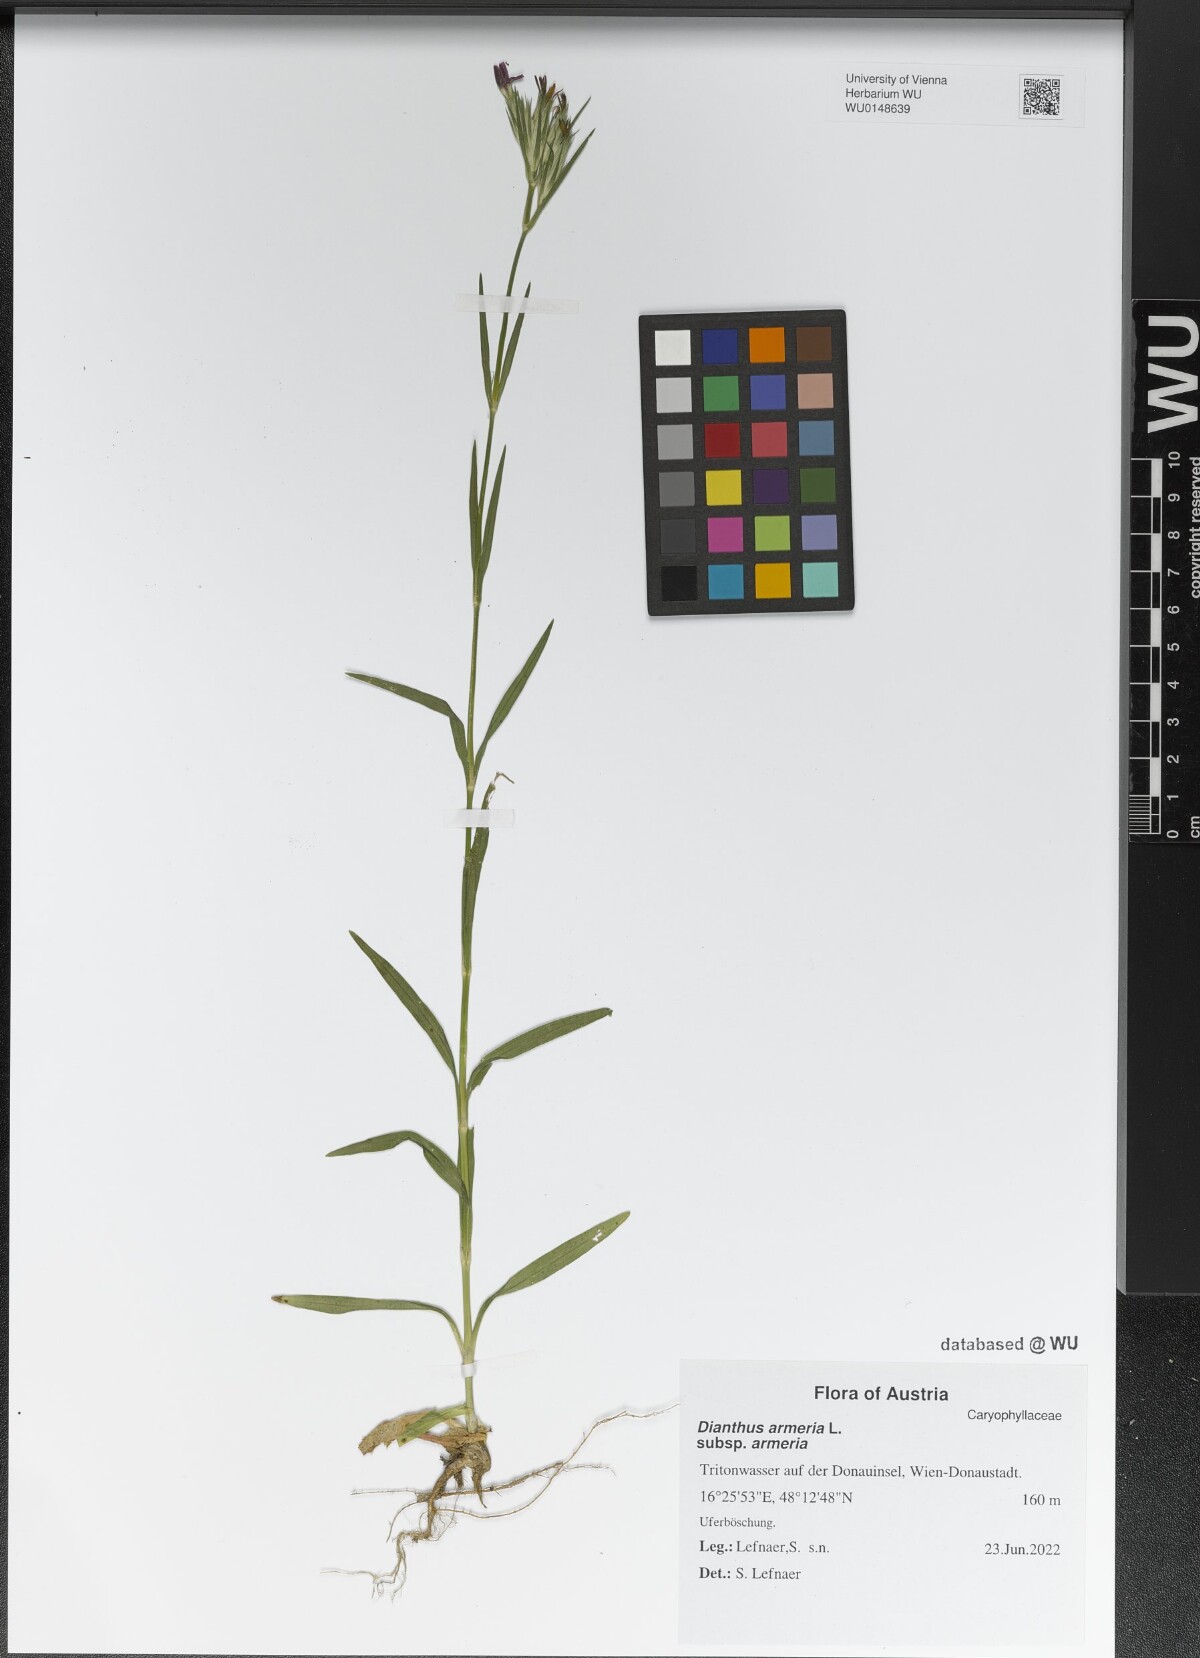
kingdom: Plantae
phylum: Tracheophyta
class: Magnoliopsida
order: Caryophyllales
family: Caryophyllaceae
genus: Dianthus
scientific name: Dianthus armeria
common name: Deptford pink
